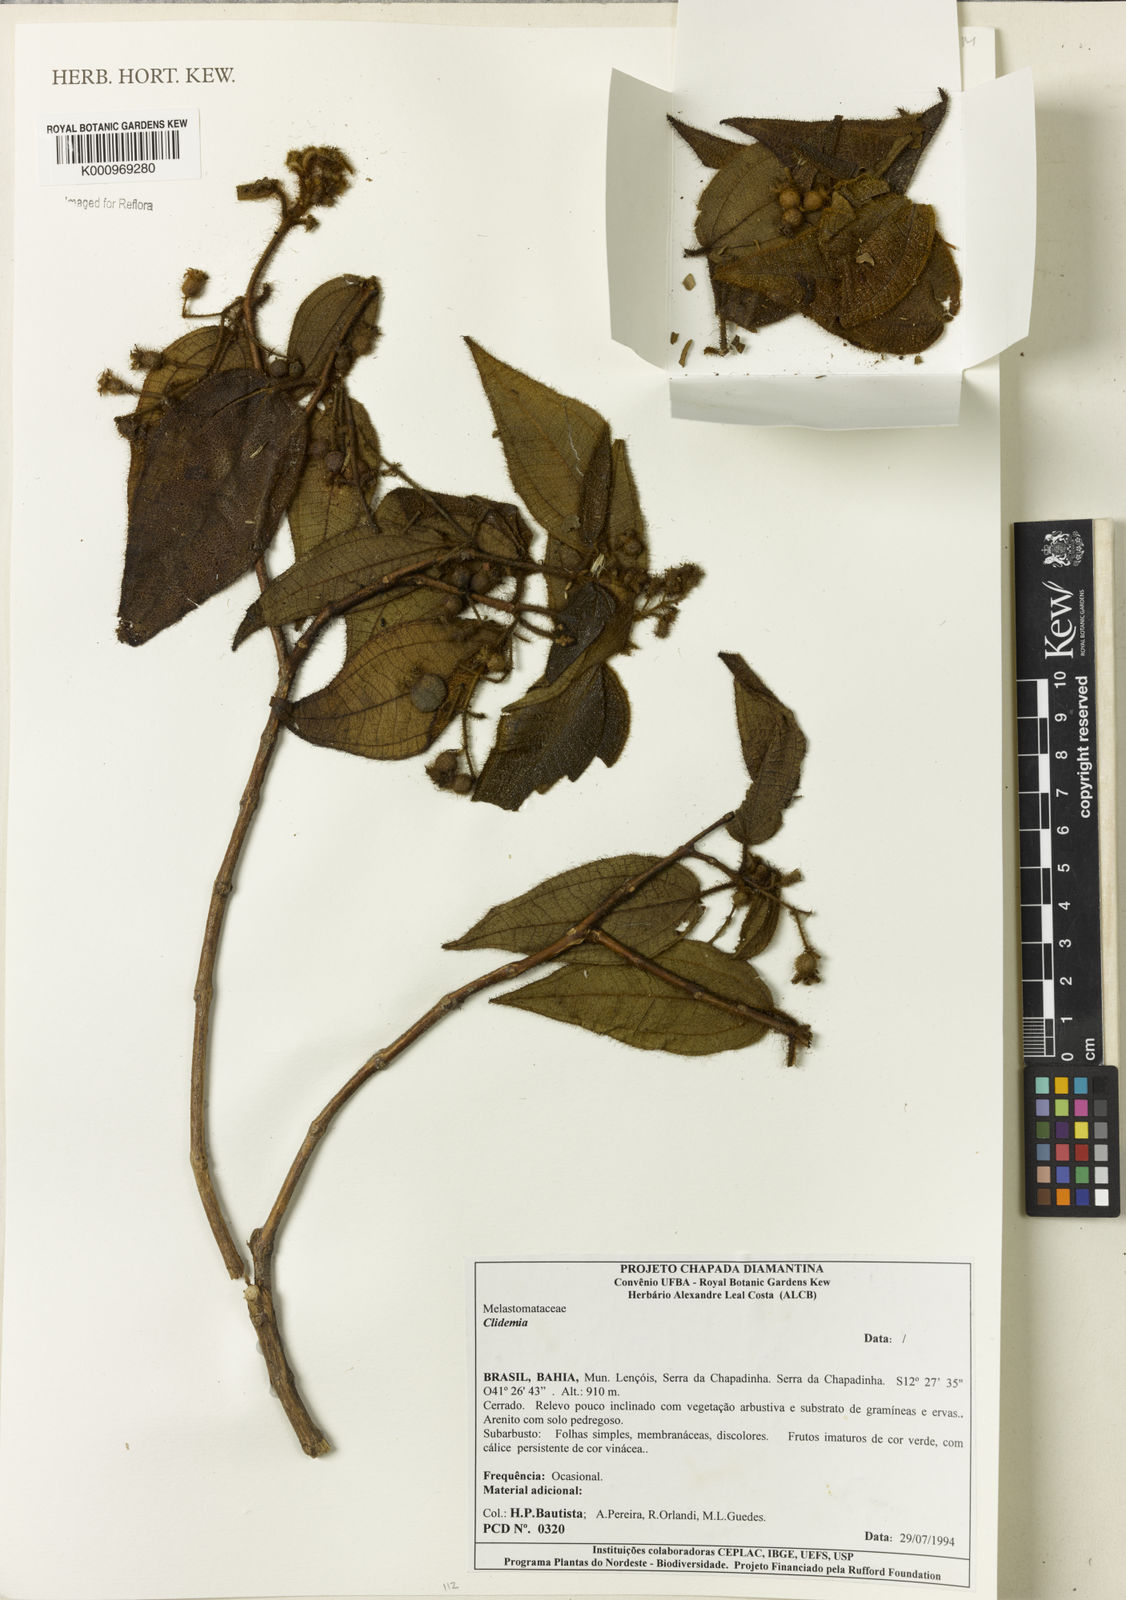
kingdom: Plantae
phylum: Tracheophyta
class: Magnoliopsida
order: Myrtales
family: Melastomataceae
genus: Miconia
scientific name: Miconia
